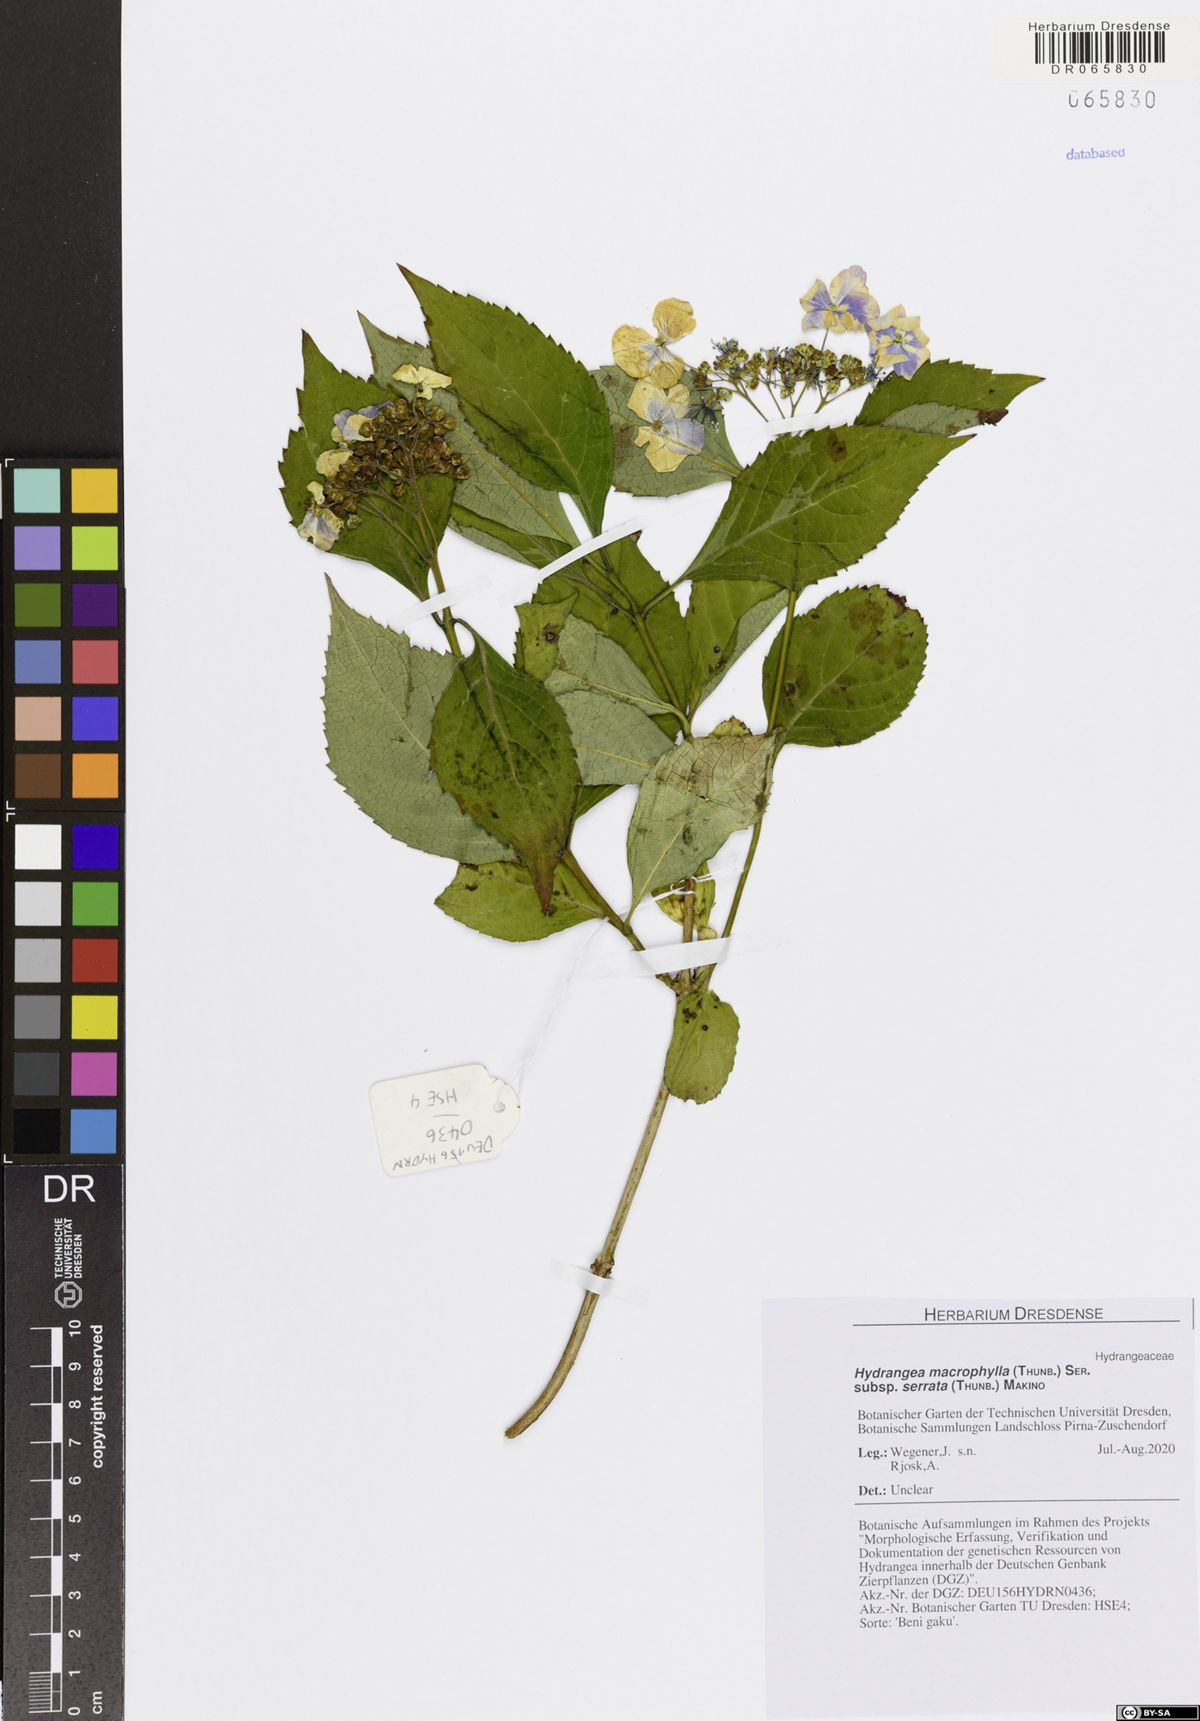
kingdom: Plantae
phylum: Tracheophyta
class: Magnoliopsida
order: Cornales
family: Hydrangeaceae
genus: Hydrangea
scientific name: Hydrangea serrata
